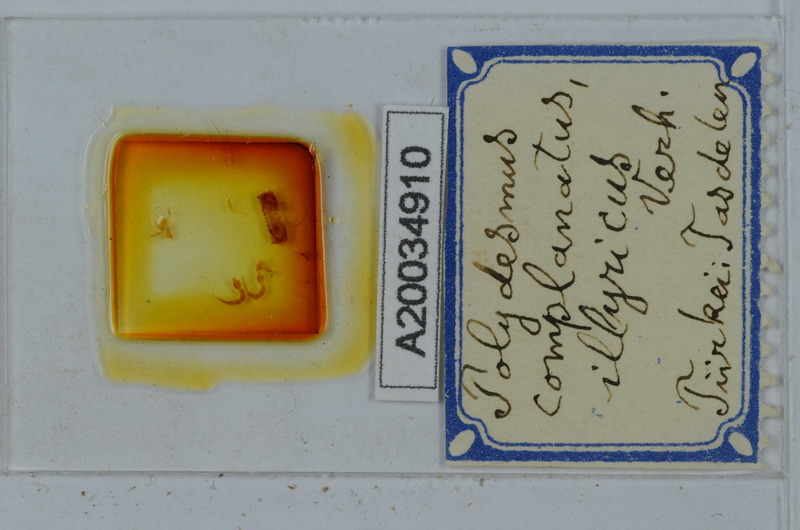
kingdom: Animalia
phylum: Arthropoda
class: Diplopoda
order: Polydesmida
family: Polydesmidae
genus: Polydesmus
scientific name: Polydesmus complanatus
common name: Flat-backed millipede
